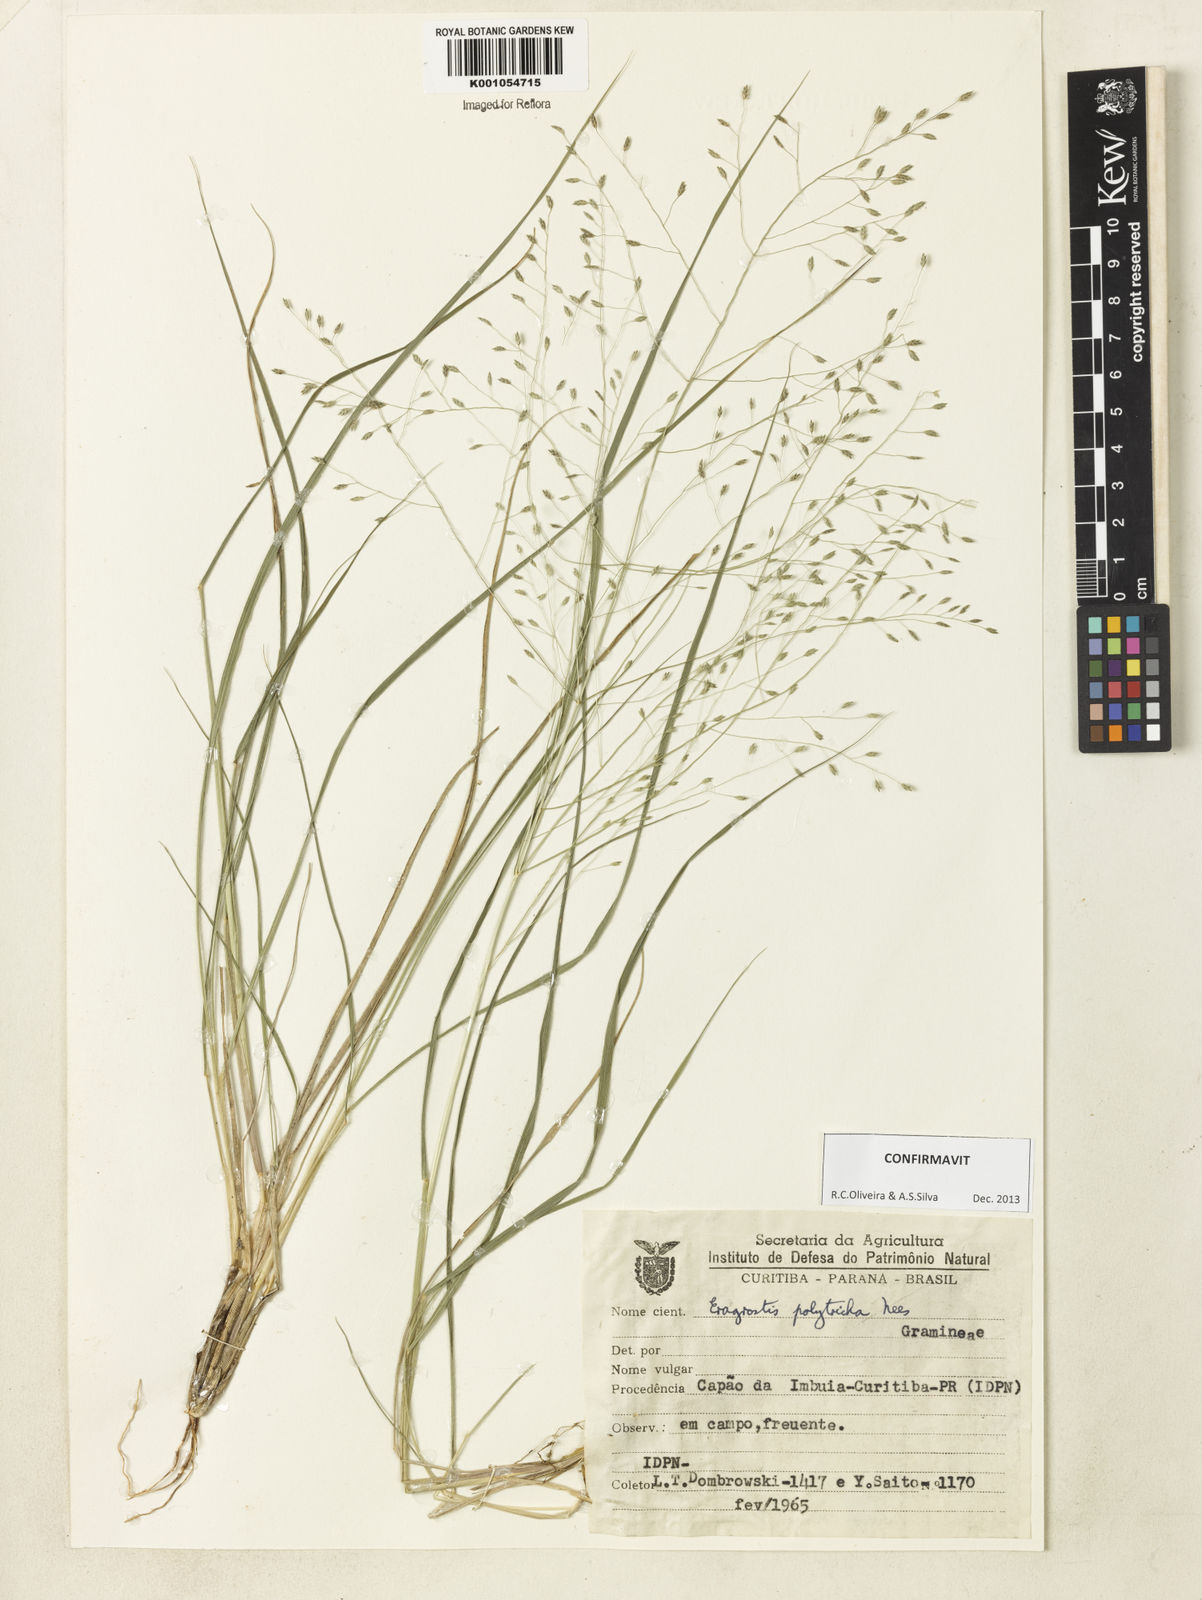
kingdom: Plantae
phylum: Tracheophyta
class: Liliopsida
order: Poales
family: Poaceae
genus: Eragrostis
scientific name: Eragrostis polytricha
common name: Hairy-sheath love grass
